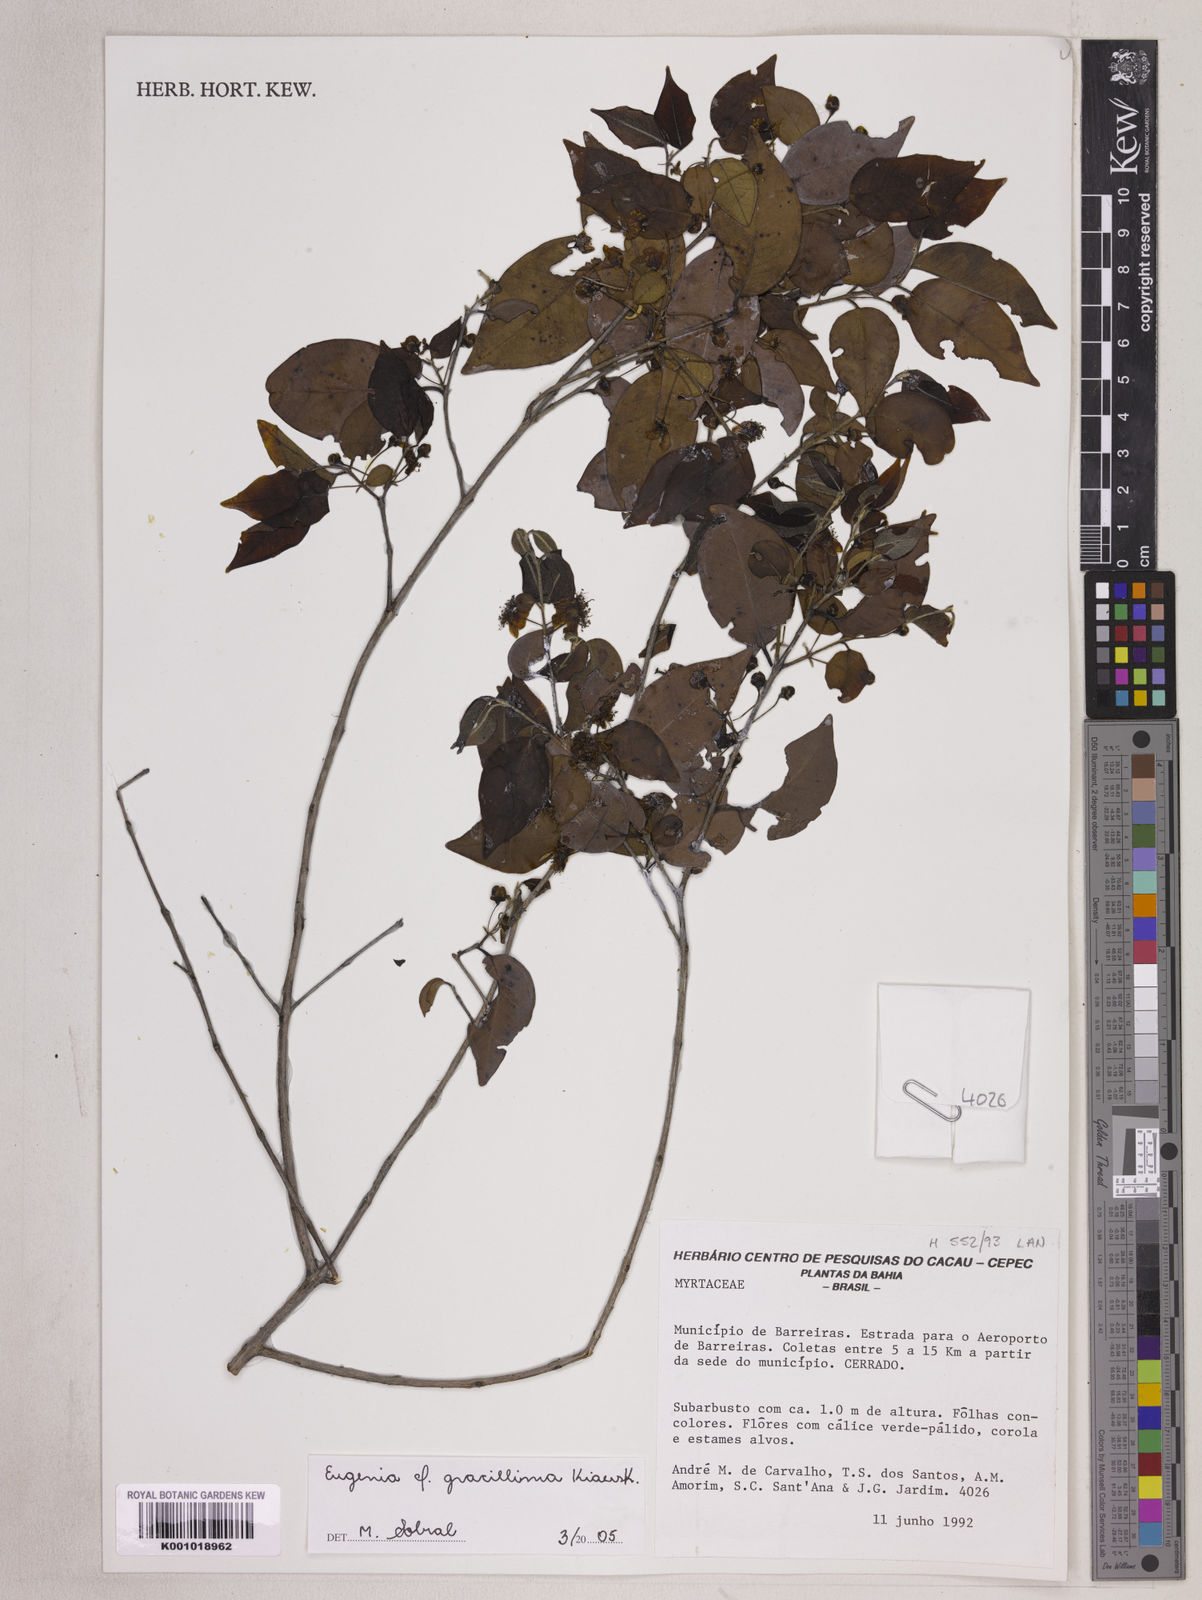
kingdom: Plantae
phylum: Tracheophyta
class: Magnoliopsida
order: Myrtales
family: Myrtaceae
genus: Eugenia
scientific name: Eugenia francavilleana
